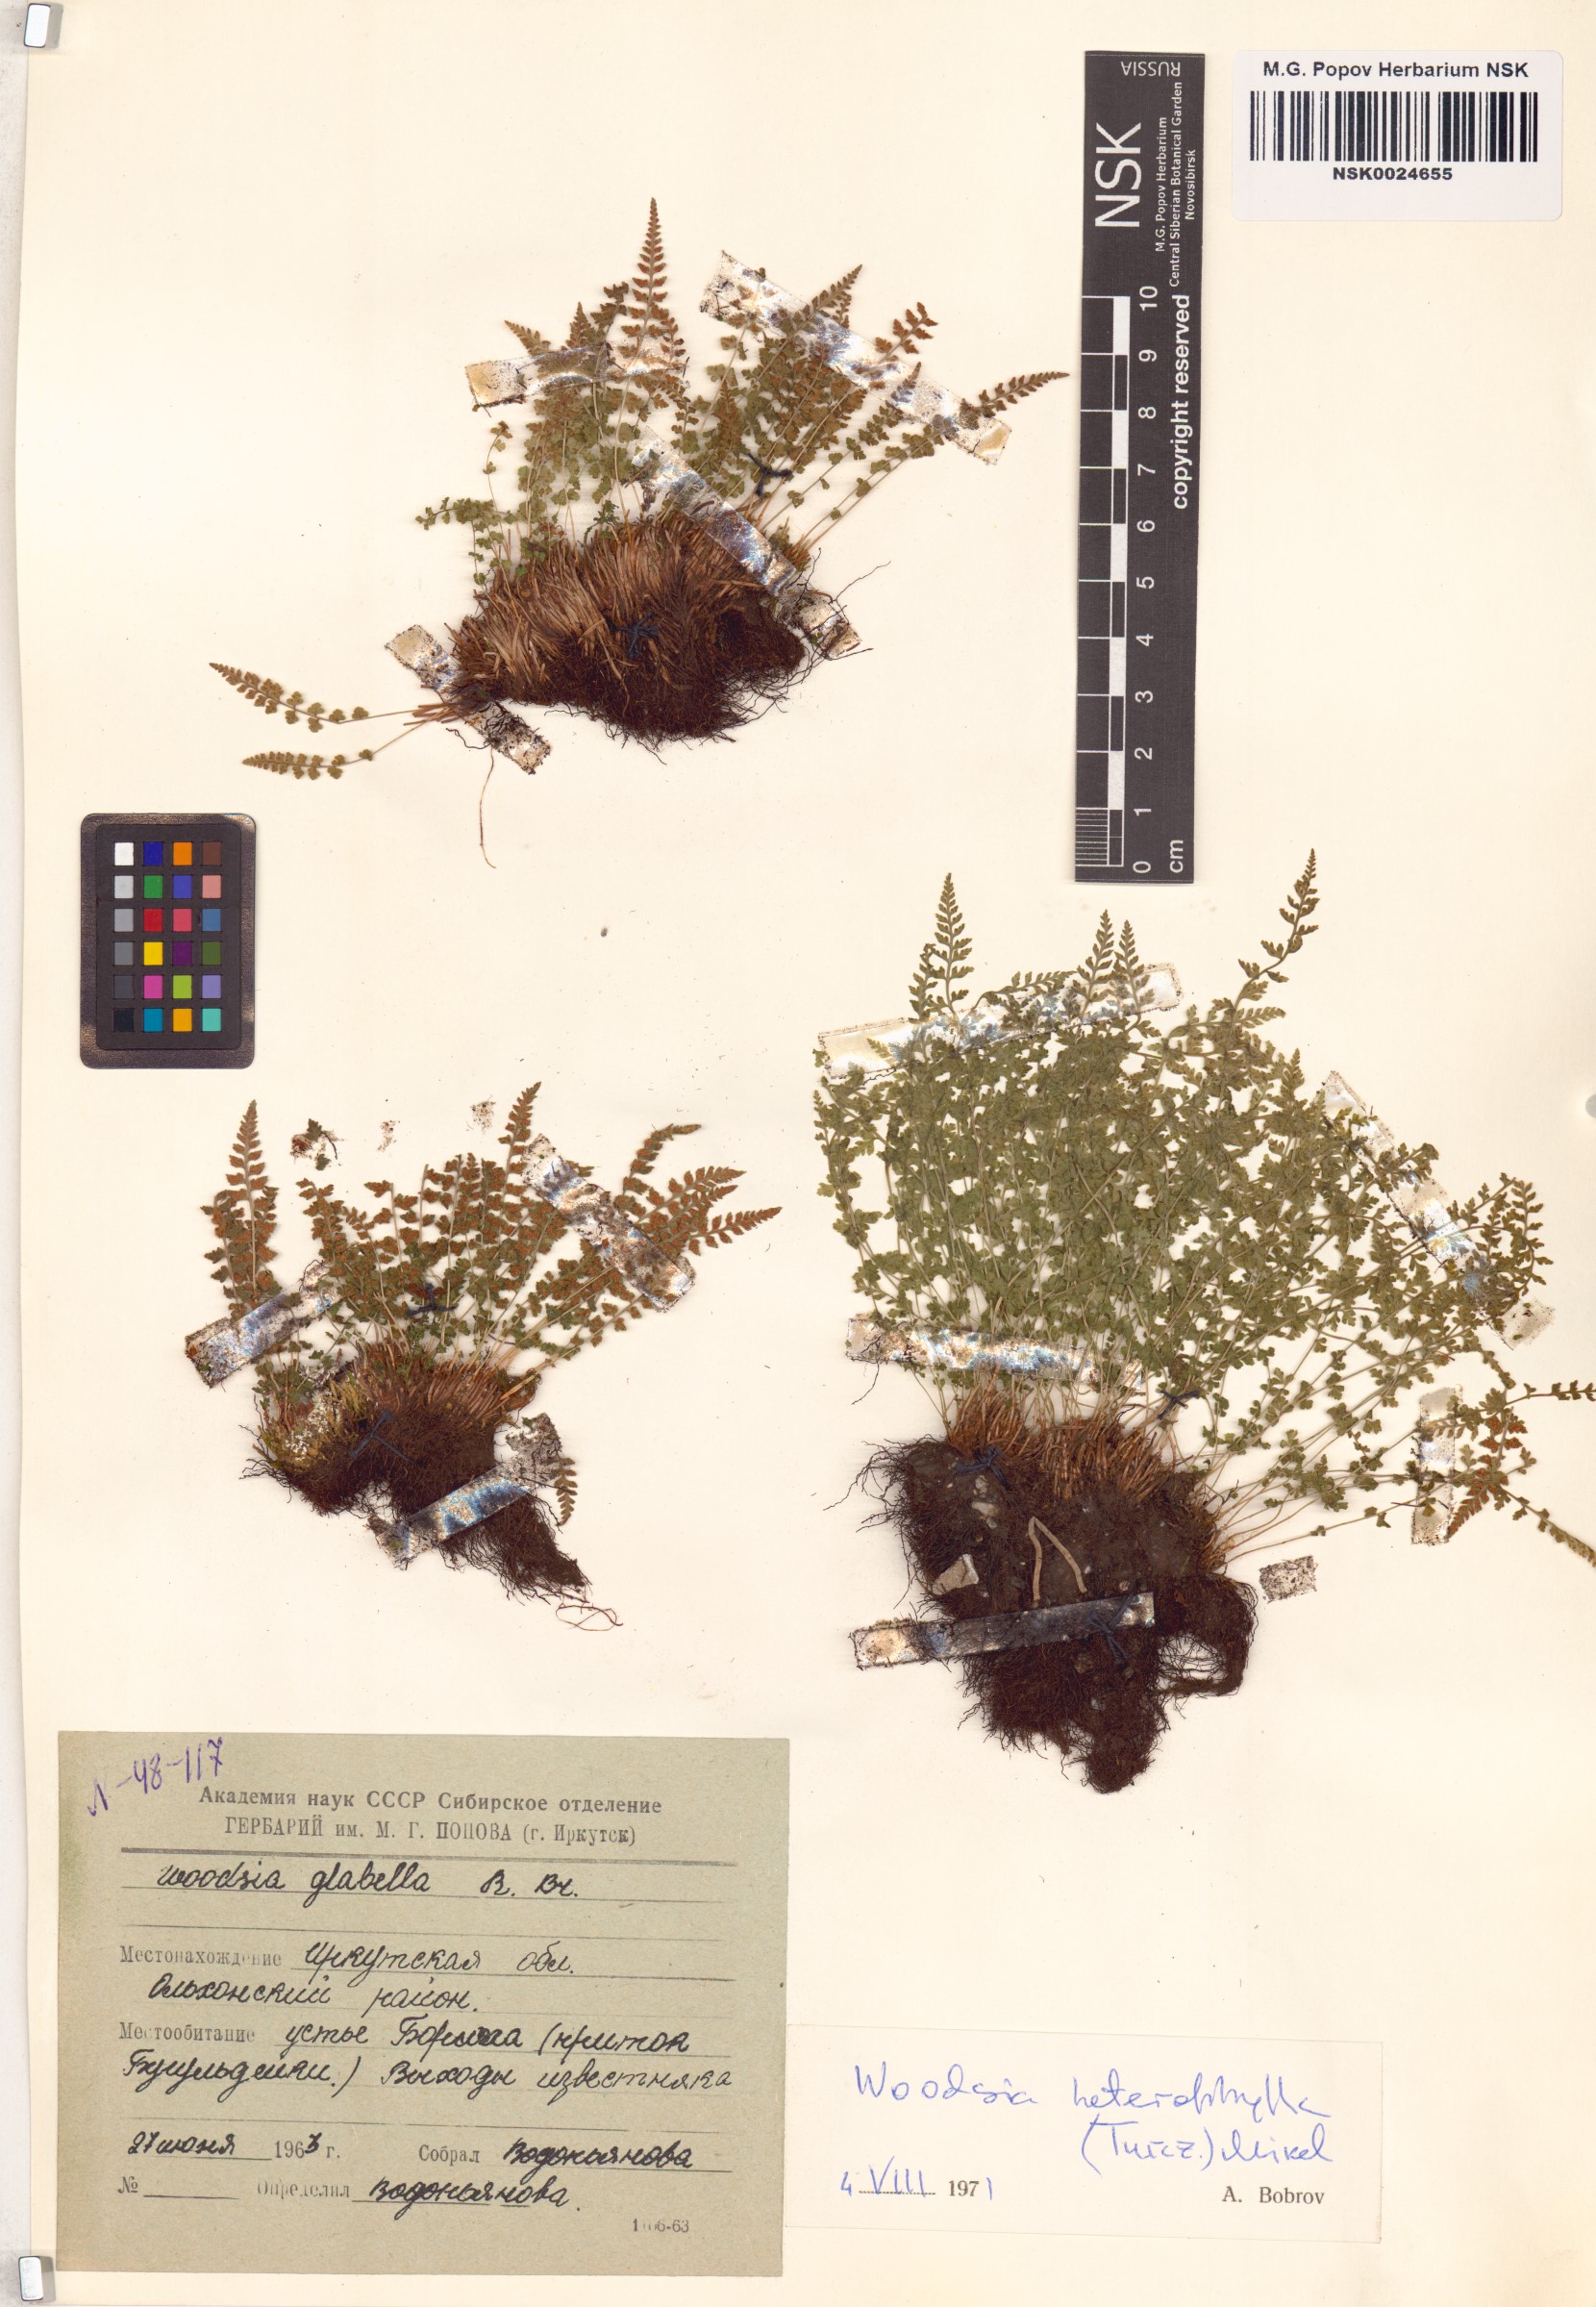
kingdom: Plantae
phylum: Tracheophyta
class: Polypodiopsida
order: Polypodiales
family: Woodsiaceae
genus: Woodsia
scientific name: Woodsia pulchella
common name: Graceful woodsia
